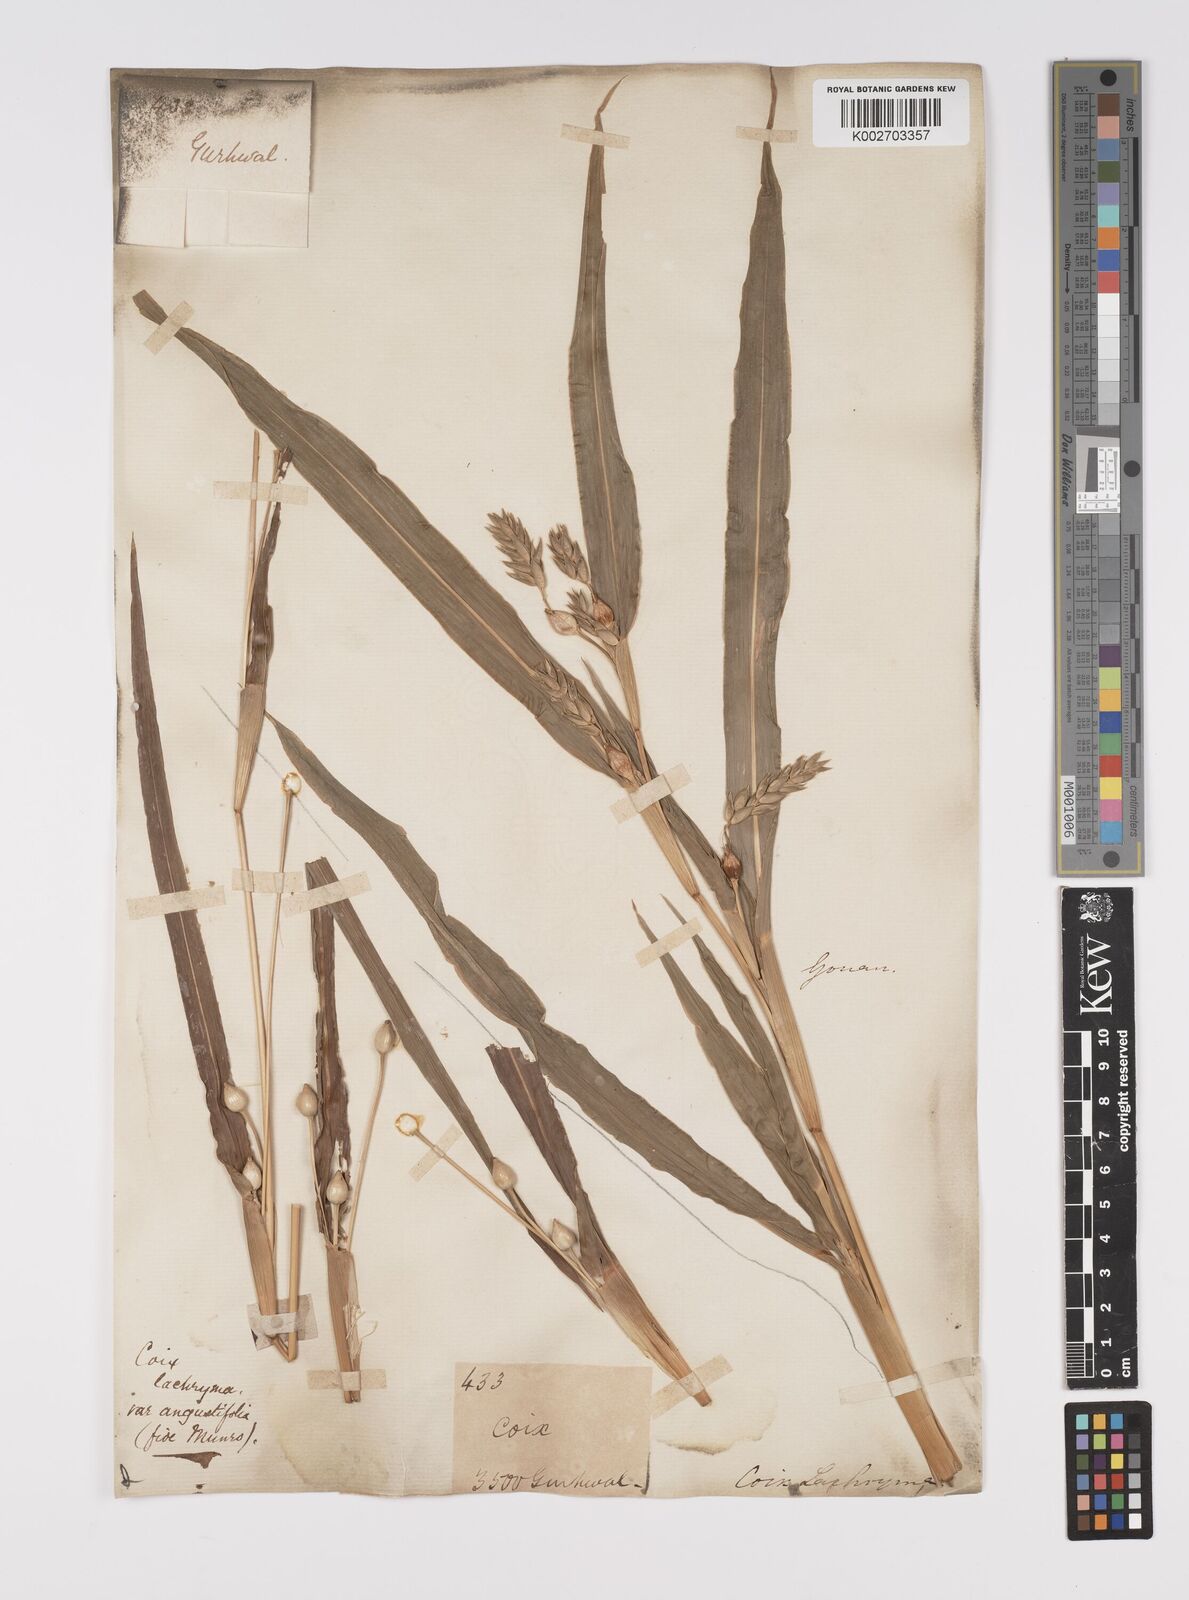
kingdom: Plantae
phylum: Tracheophyta
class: Liliopsida
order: Poales
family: Poaceae
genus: Coix
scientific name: Coix lacryma-jobi
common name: Job's tears
